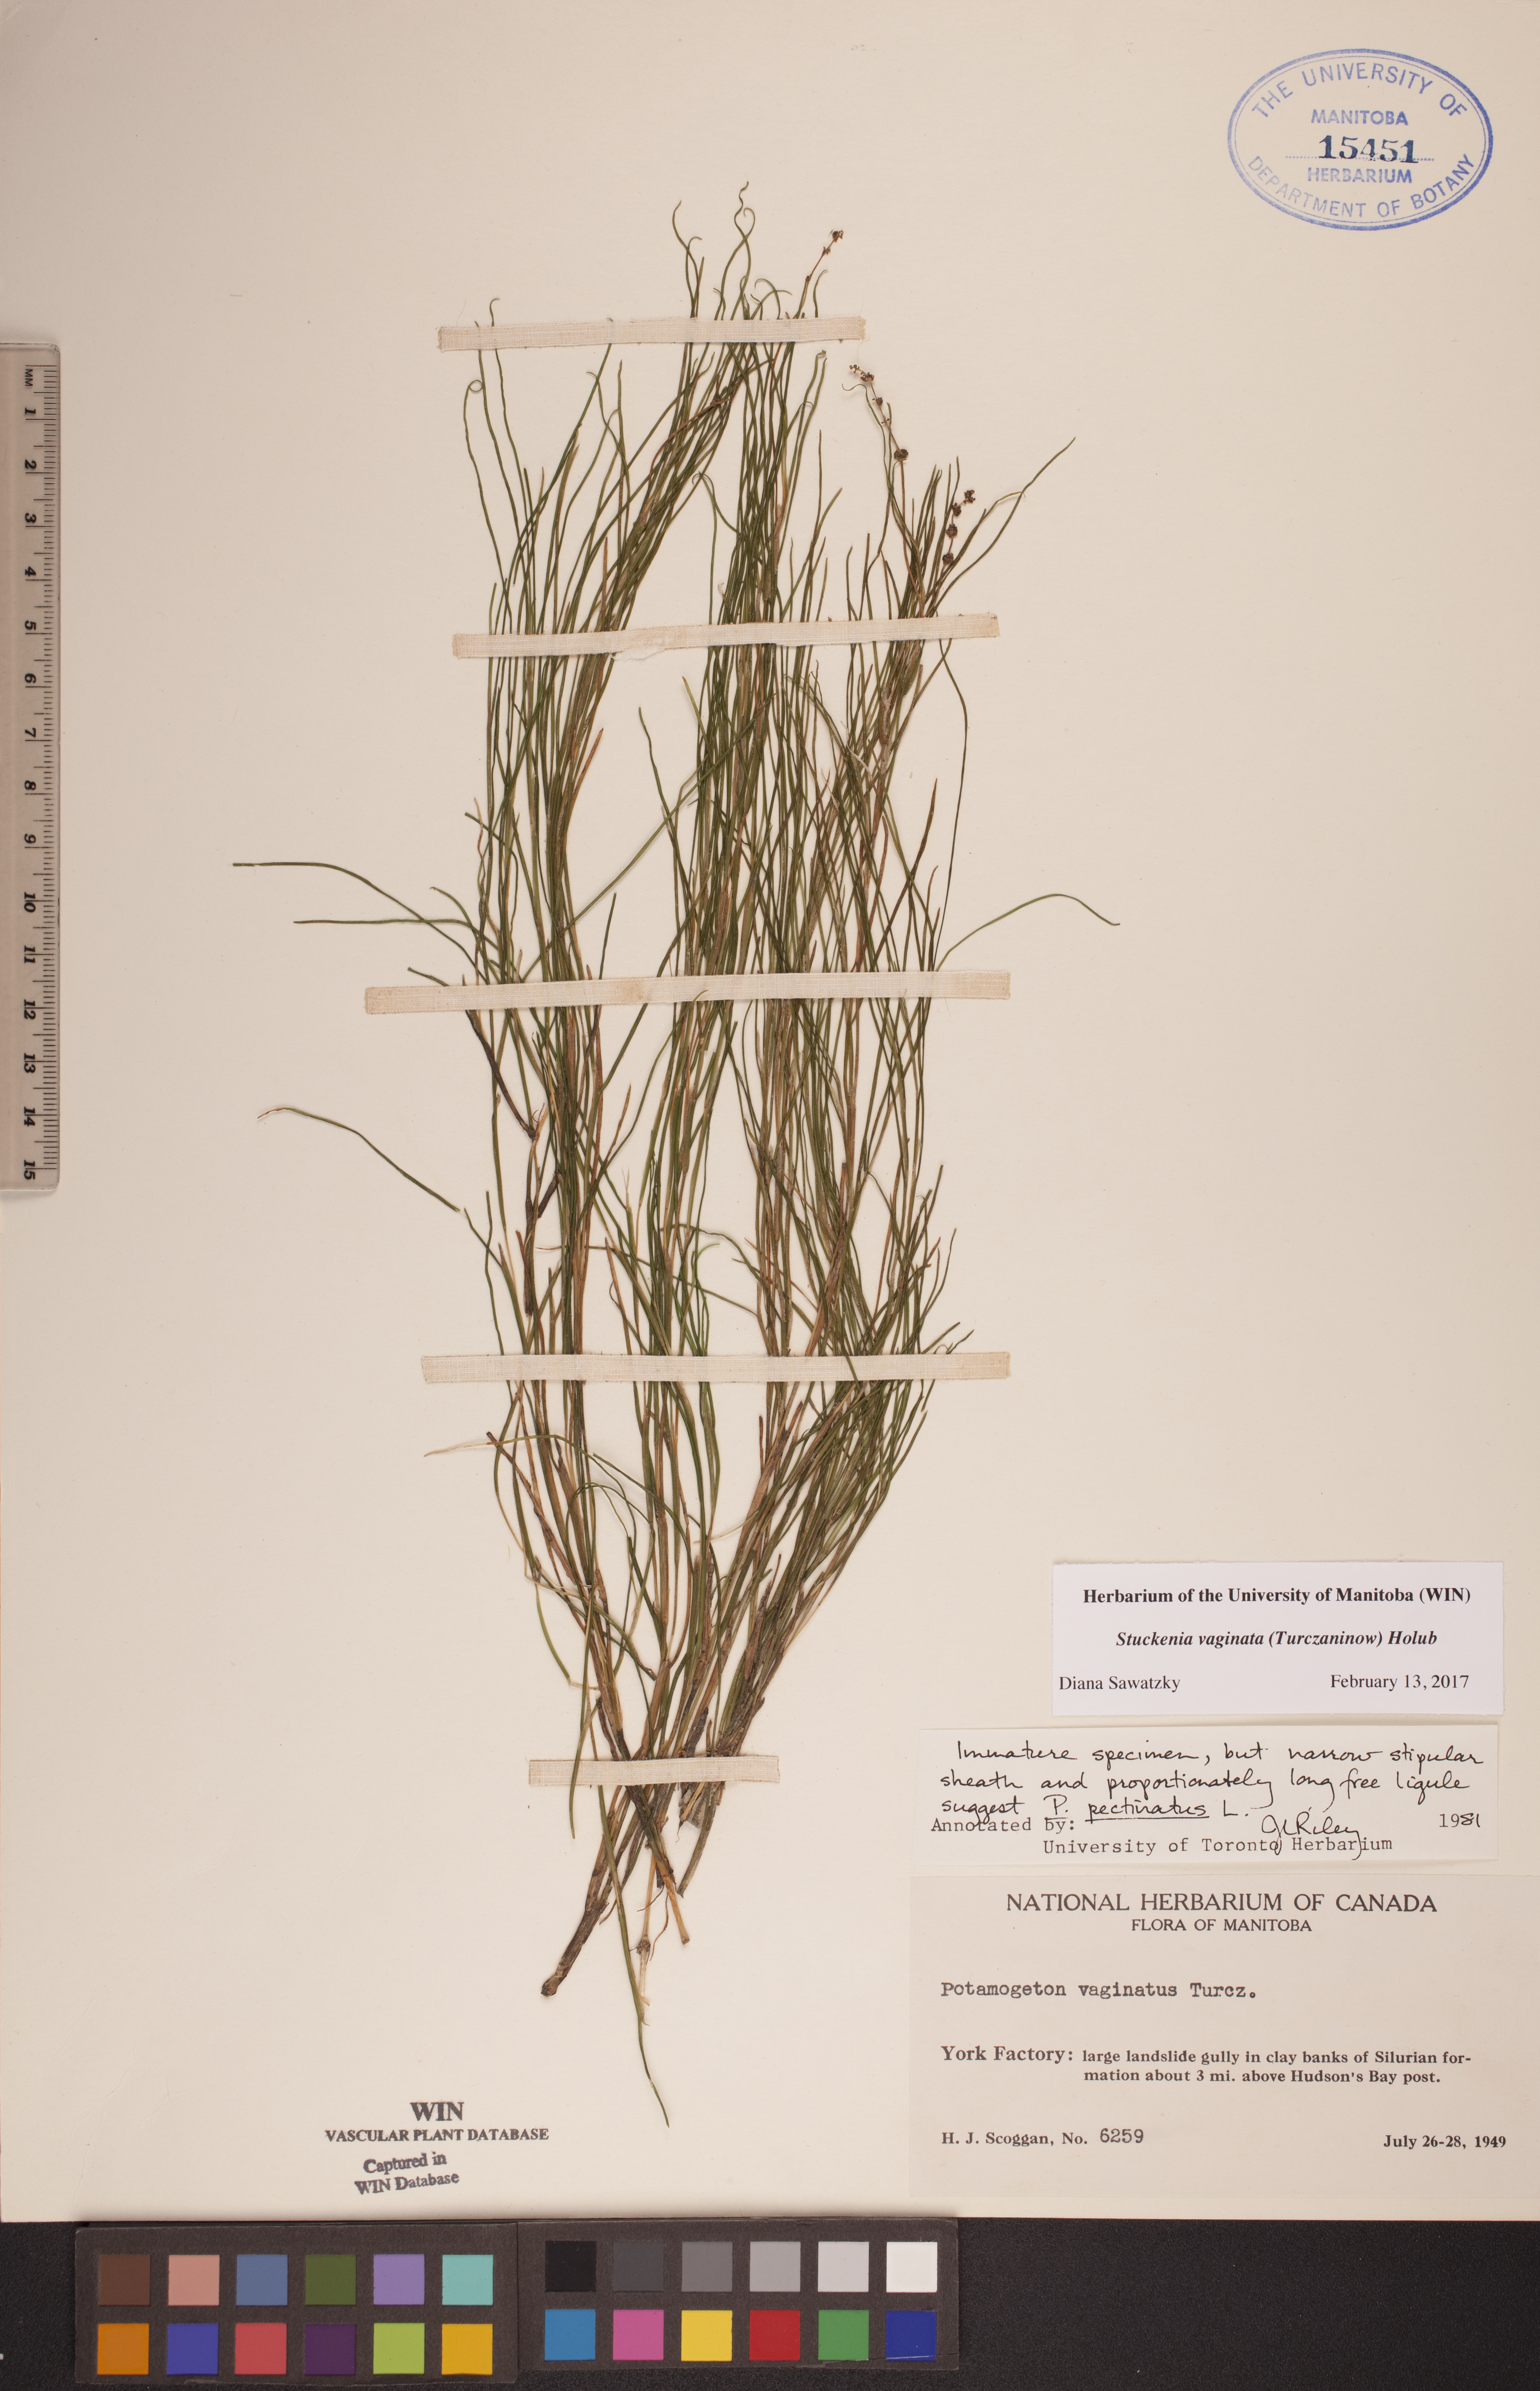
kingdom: Plantae
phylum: Tracheophyta
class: Liliopsida
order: Alismatales
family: Potamogetonaceae
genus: Stuckenia
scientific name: Stuckenia vaginata
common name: Big-sheathed pondweed
